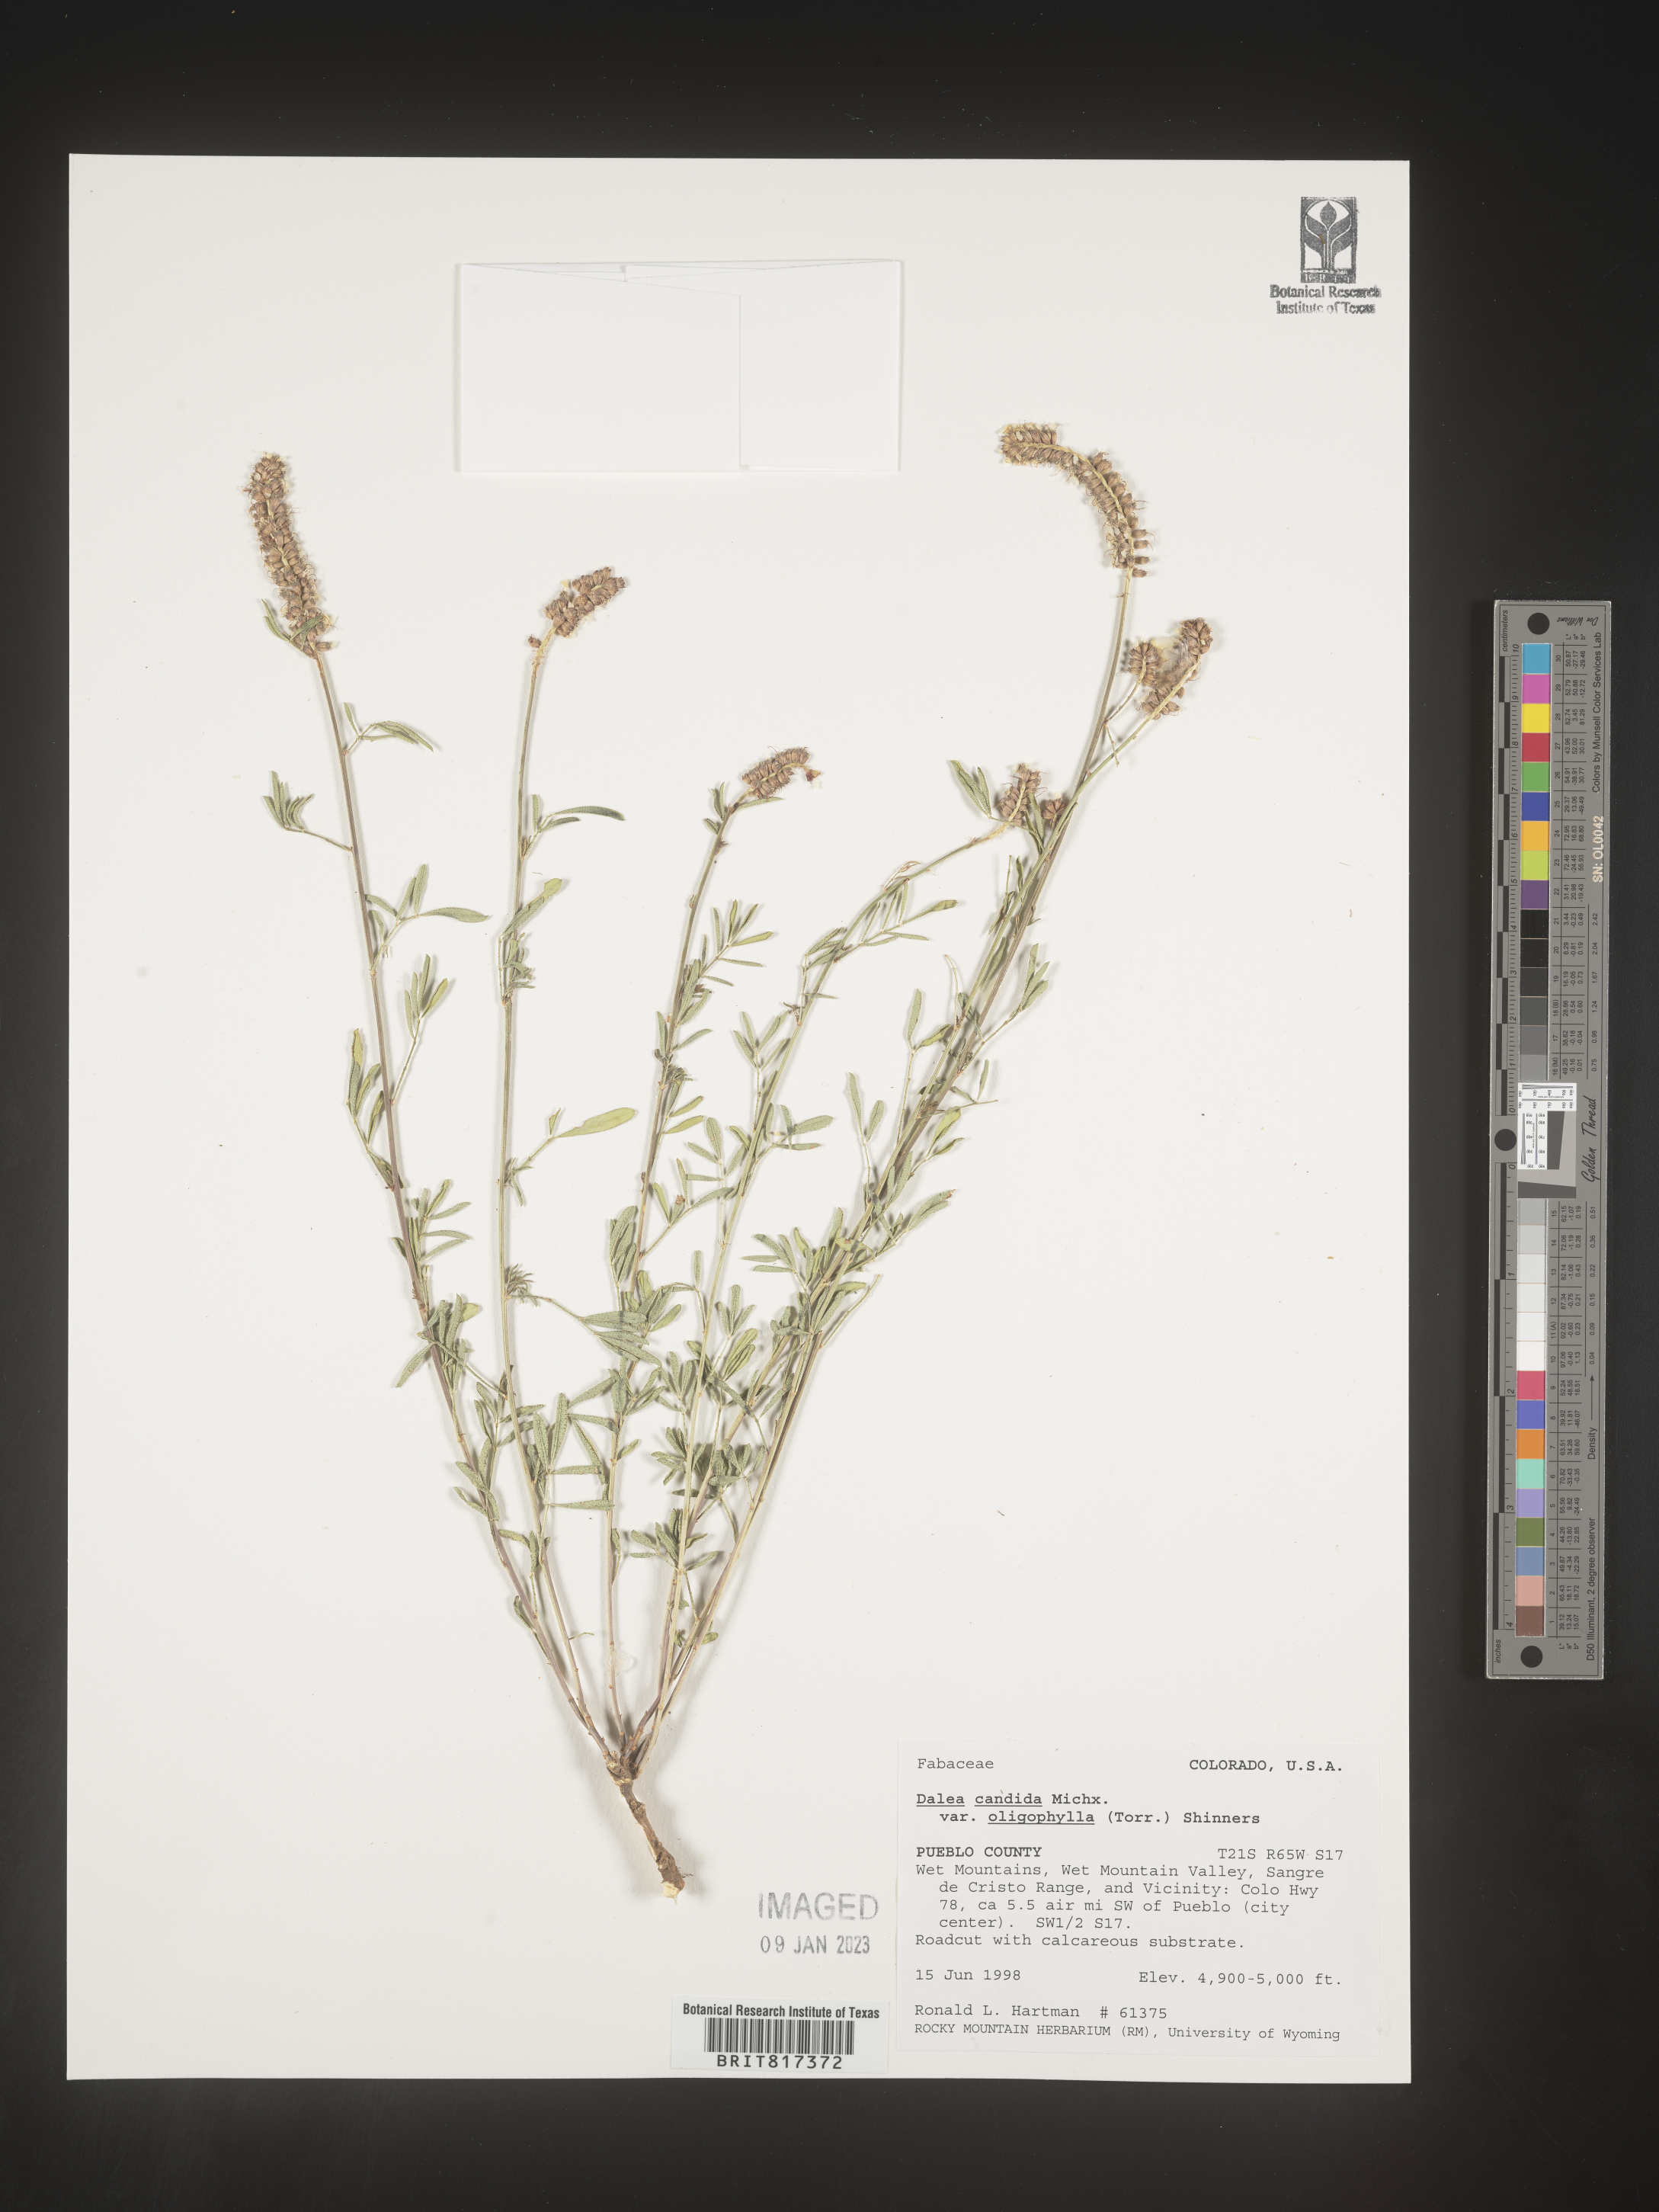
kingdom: Plantae
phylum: Tracheophyta
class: Magnoliopsida
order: Fabales
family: Fabaceae
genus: Dalea
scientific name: Dalea candida
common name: White prairie-clover
